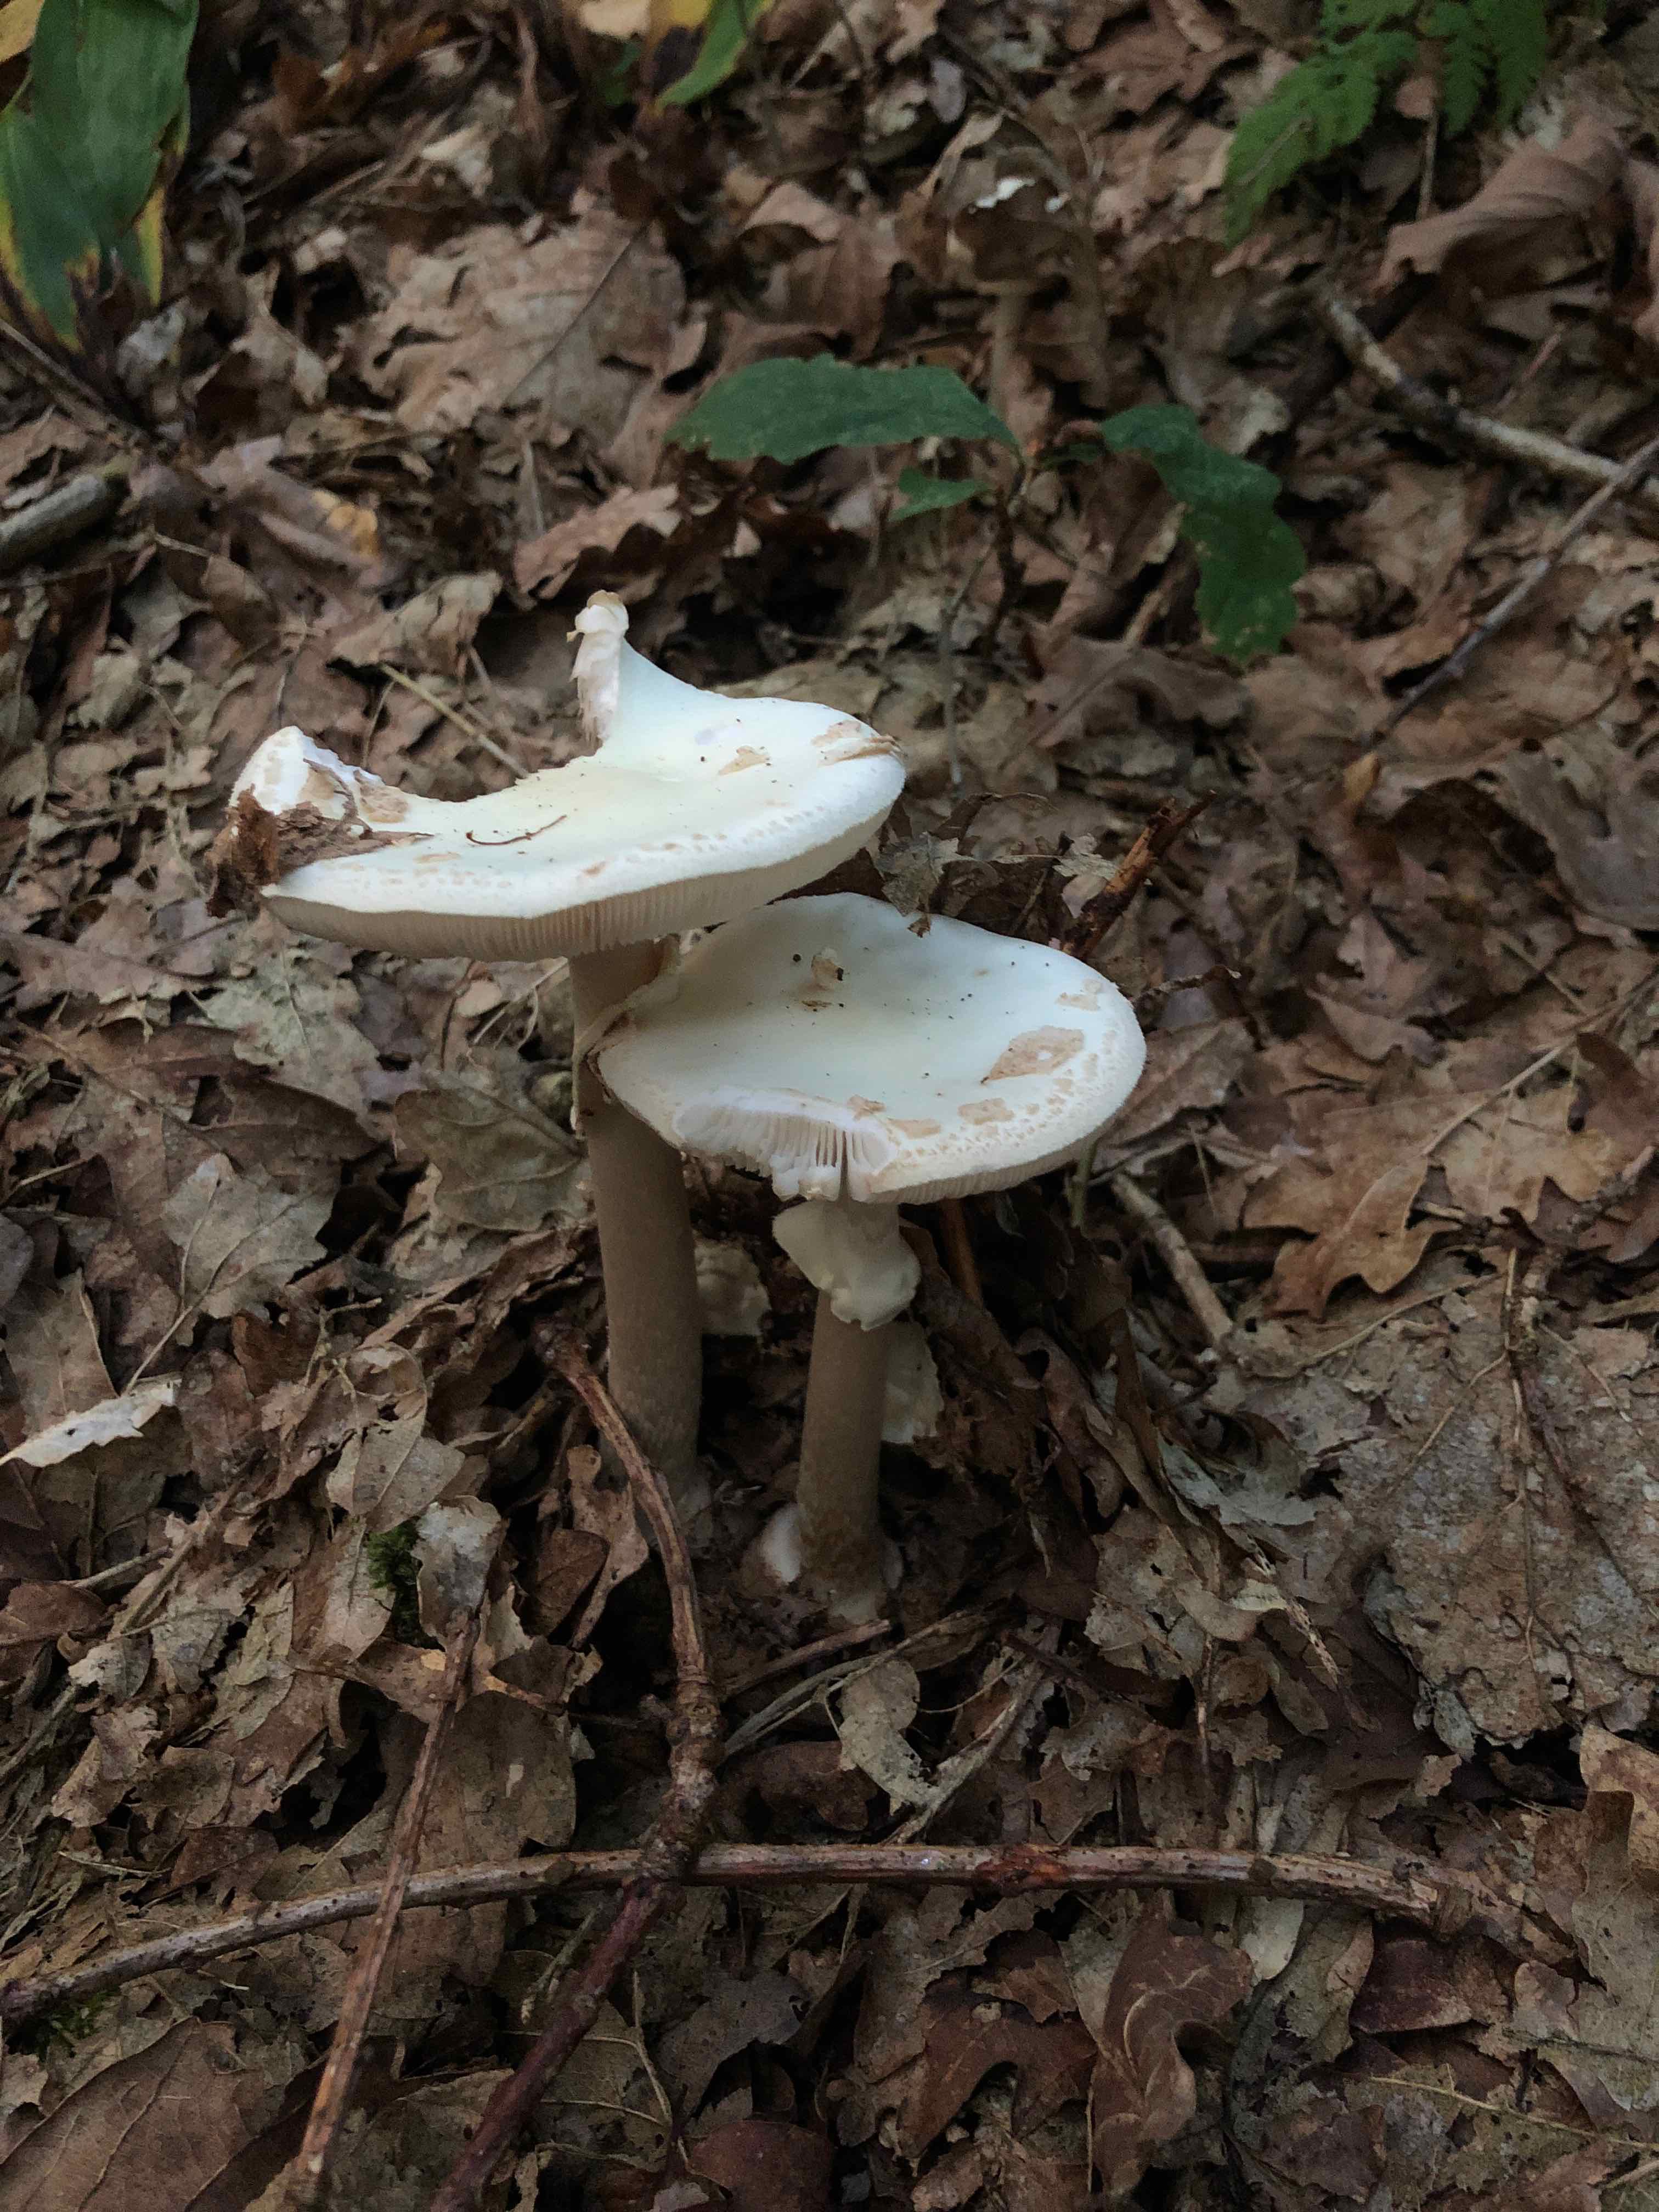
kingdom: Fungi
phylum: Basidiomycota
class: Agaricomycetes
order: Agaricales
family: Amanitaceae
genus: Amanita
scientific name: Amanita citrina
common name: False death-cap
